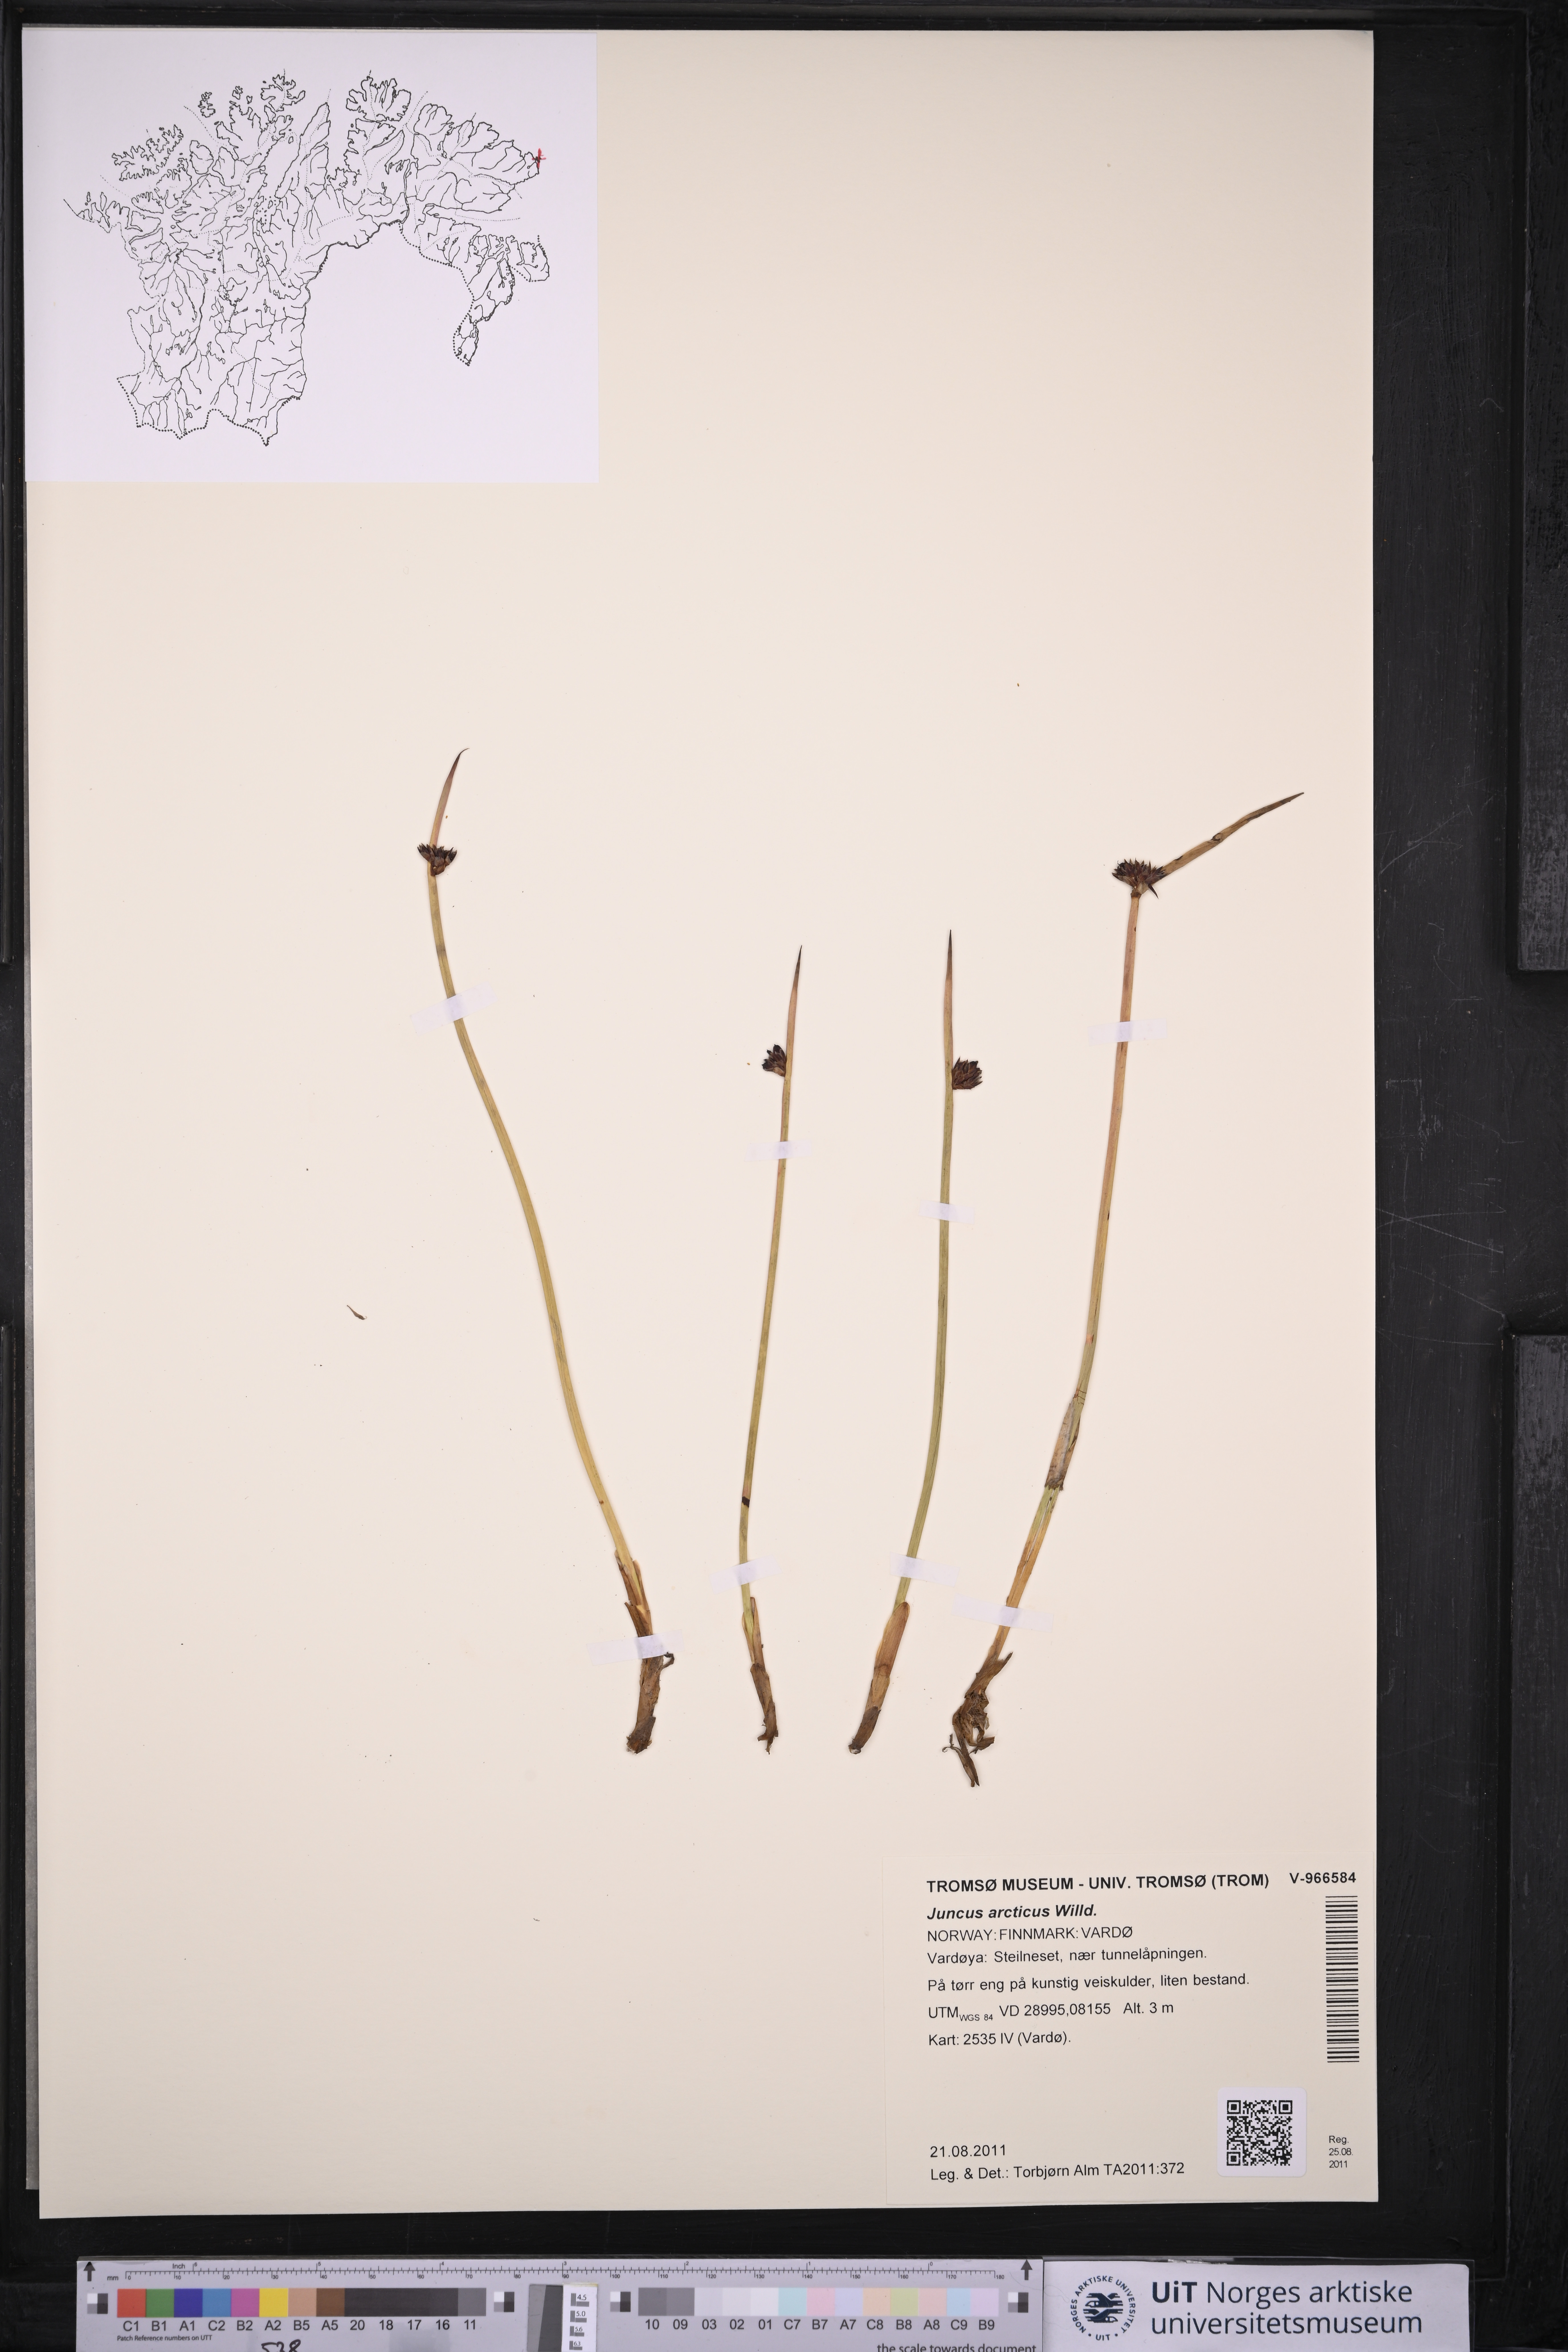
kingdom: Plantae
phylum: Tracheophyta
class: Liliopsida
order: Poales
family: Juncaceae
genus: Juncus
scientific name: Juncus arcticus
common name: Arctic rush
